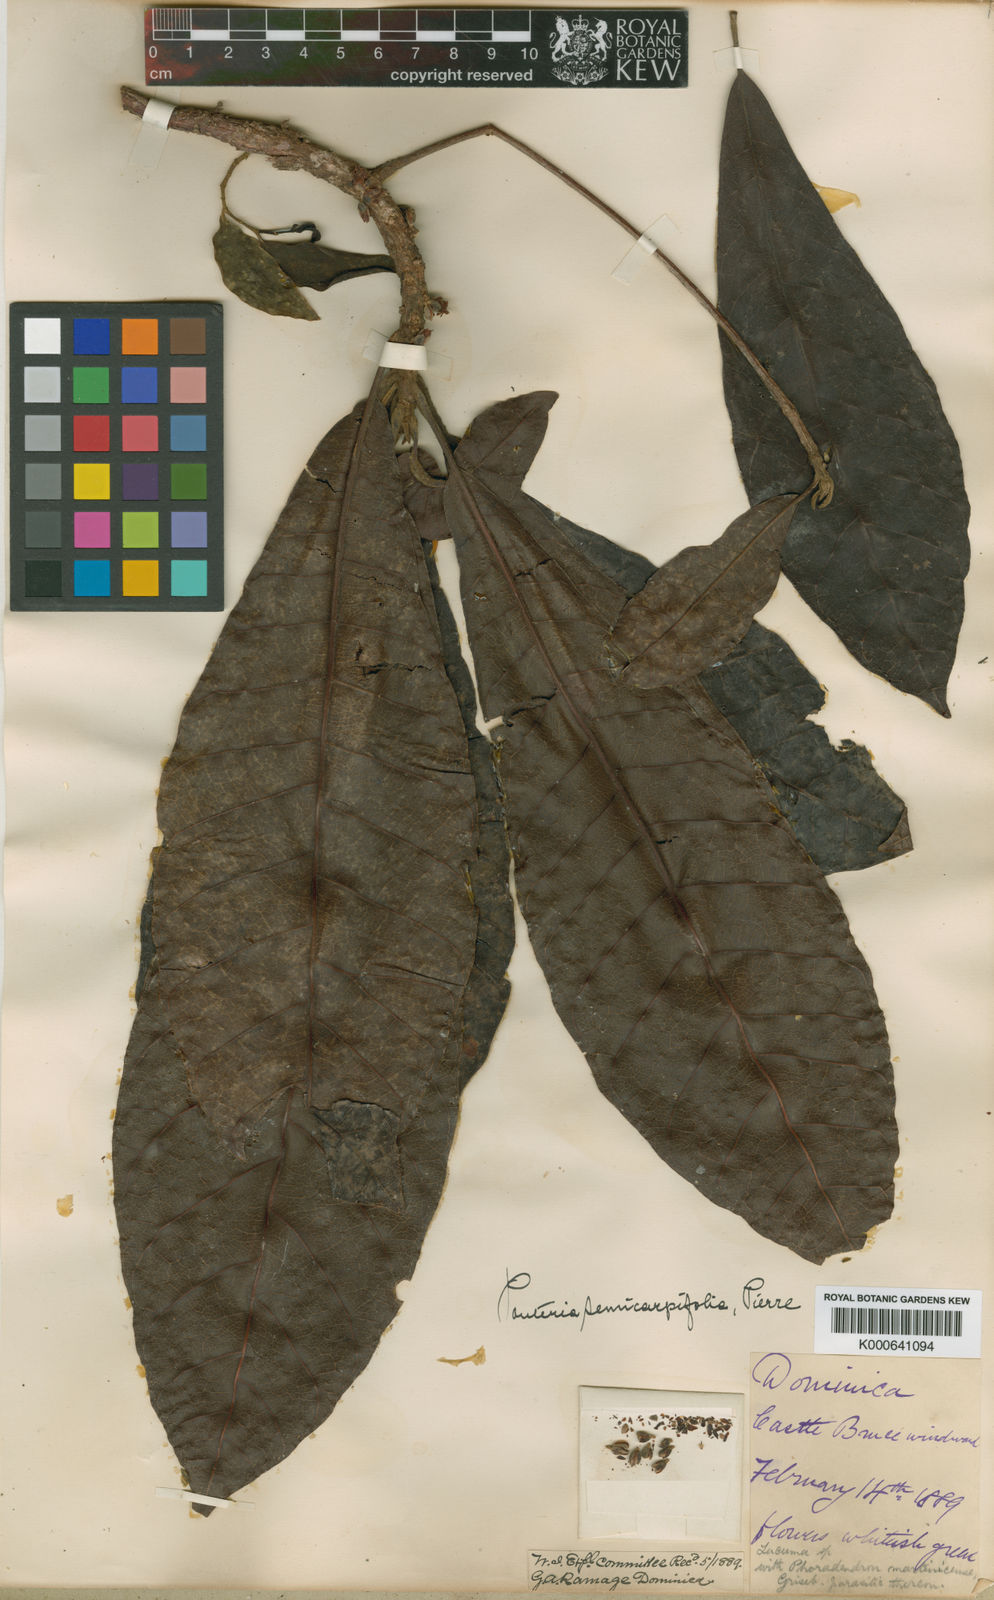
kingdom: Plantae
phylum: Tracheophyta
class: Magnoliopsida
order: Ericales
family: Sapotaceae
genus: Pouteria
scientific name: Pouteria semecarpifolia
